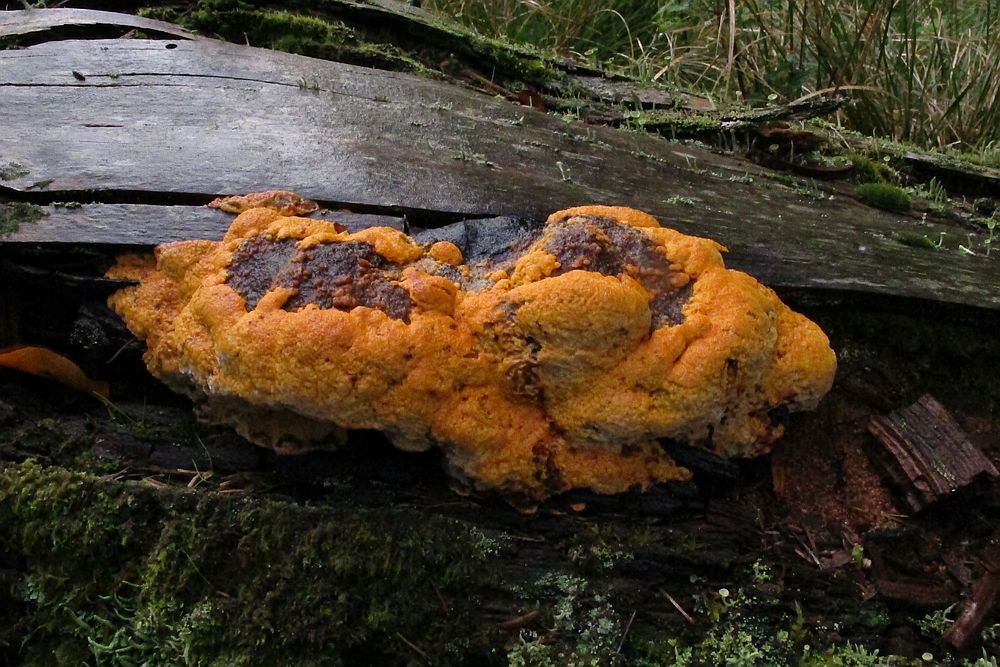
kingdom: Fungi
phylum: Basidiomycota
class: Agaricomycetes
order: Gloeophyllales
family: Gloeophyllaceae
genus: Gloeophyllum
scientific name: Gloeophyllum odoratum
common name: duftende korkhat
